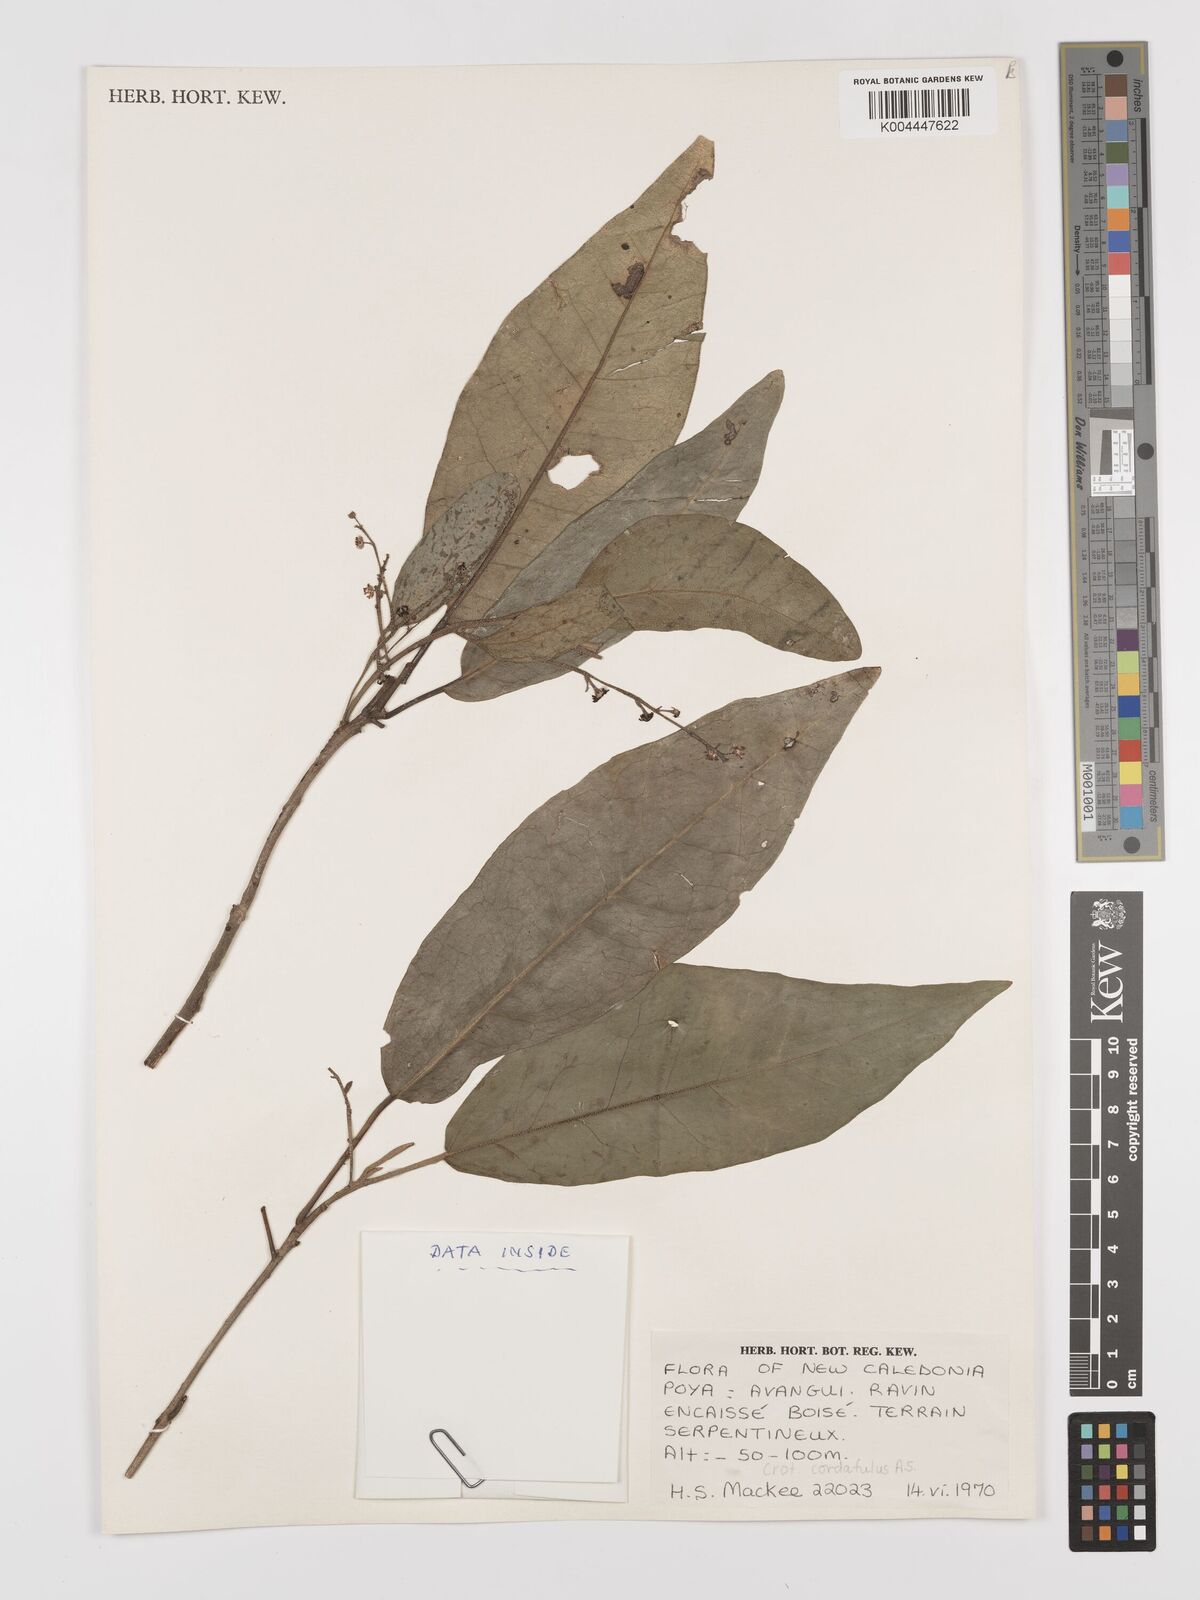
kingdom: Plantae
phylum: Tracheophyta
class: Magnoliopsida
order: Malpighiales
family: Euphorbiaceae
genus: Croton
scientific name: Croton cordatulus
